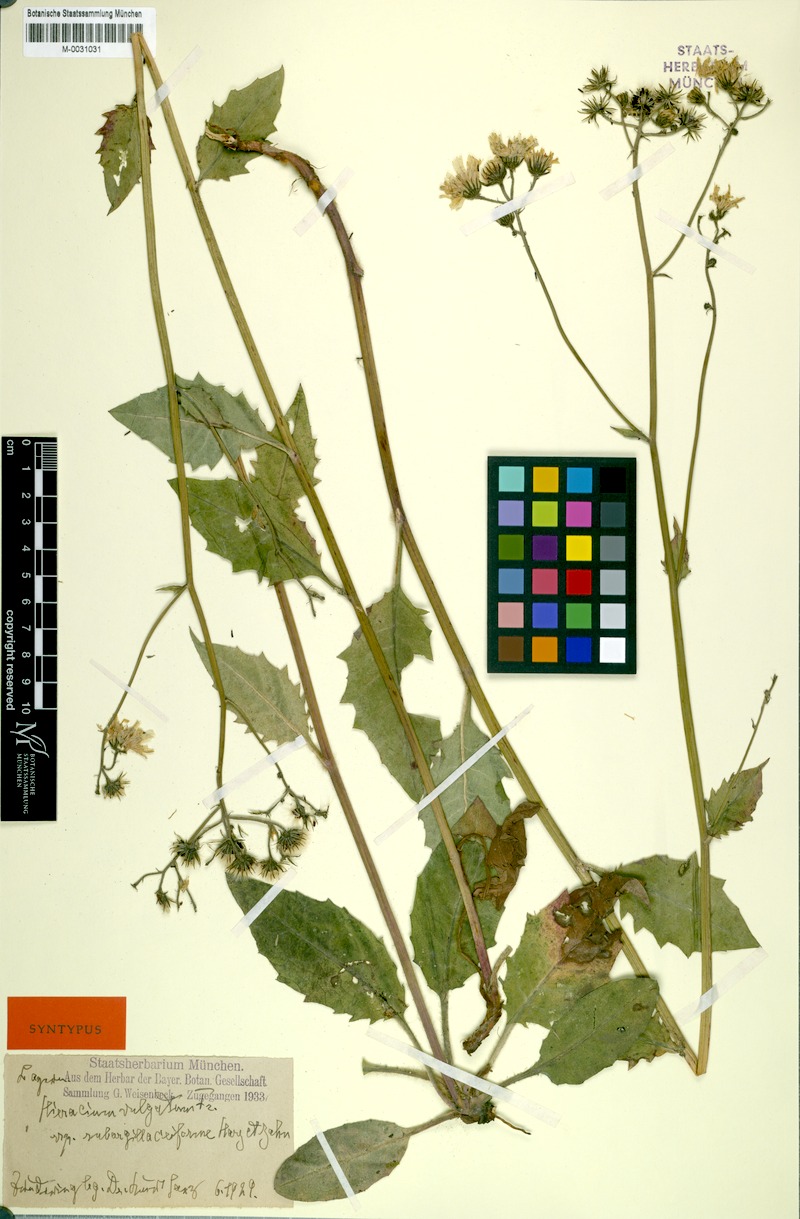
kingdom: Plantae
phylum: Tracheophyta
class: Magnoliopsida
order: Asterales
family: Asteraceae
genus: Hieracium
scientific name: Hieracium lachenalii
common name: Common hawkweed
